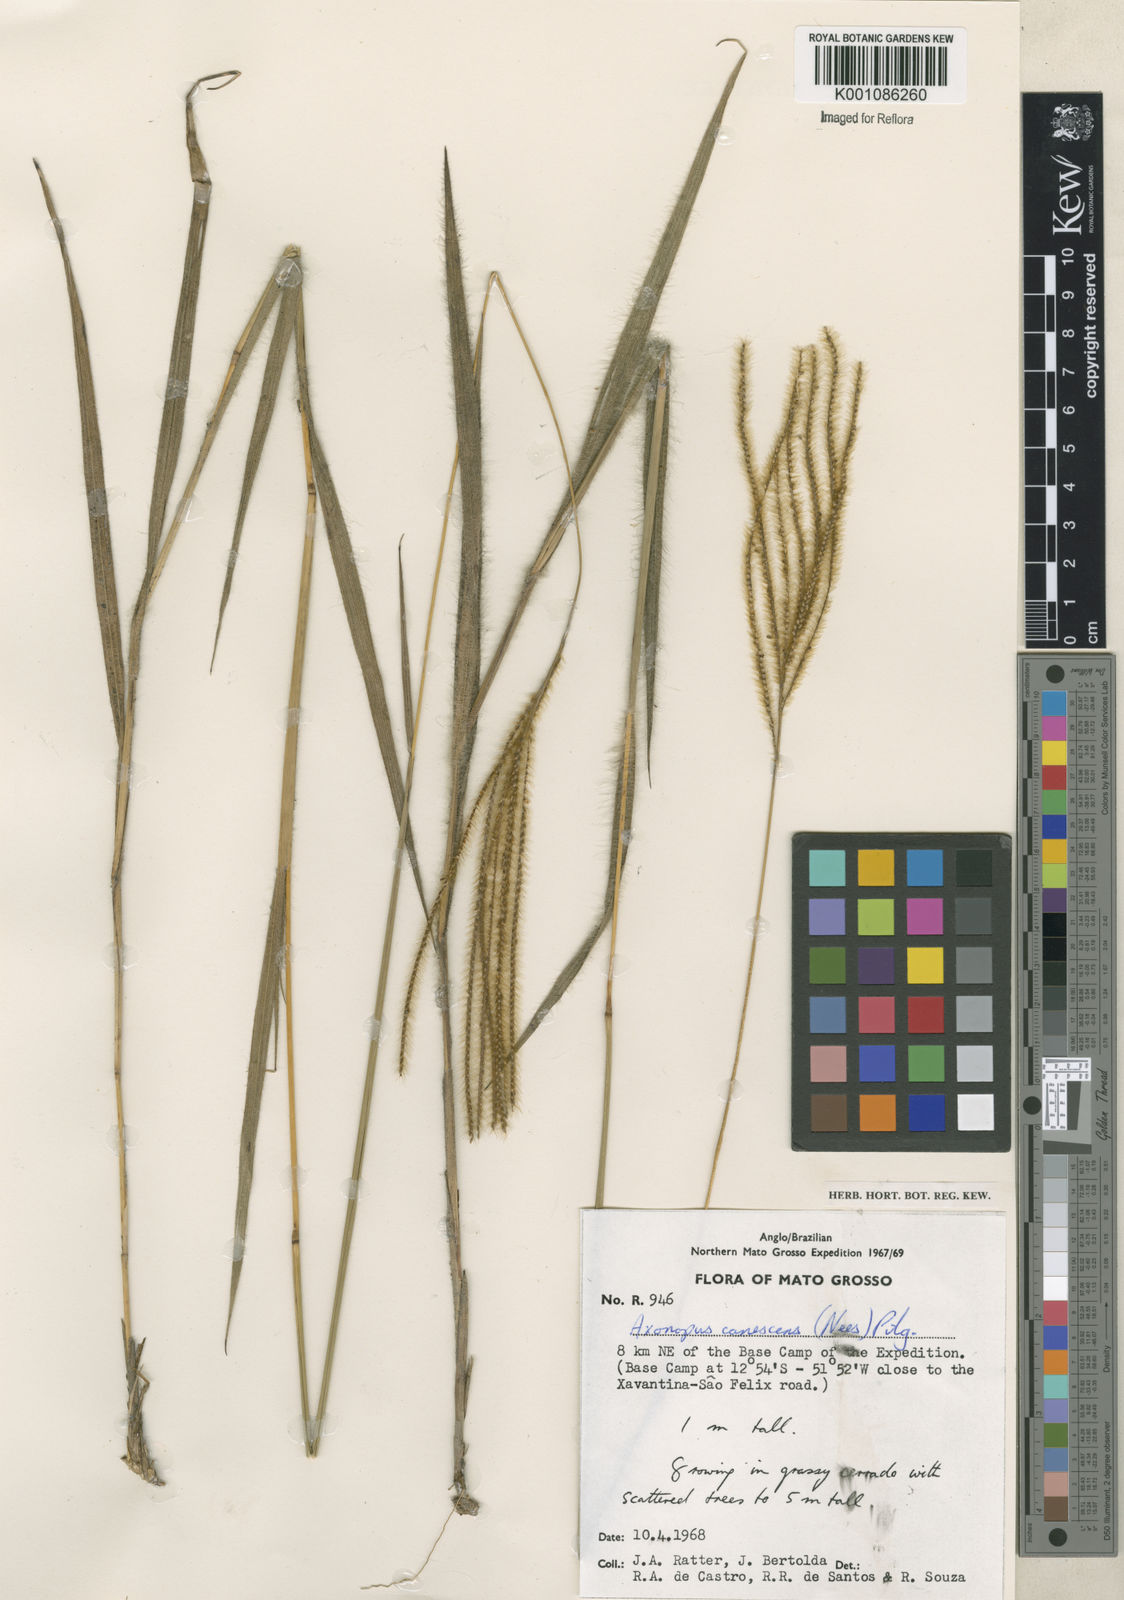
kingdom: Plantae
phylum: Tracheophyta
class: Liliopsida
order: Poales
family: Poaceae
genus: Axonopus
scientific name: Axonopus aureus
